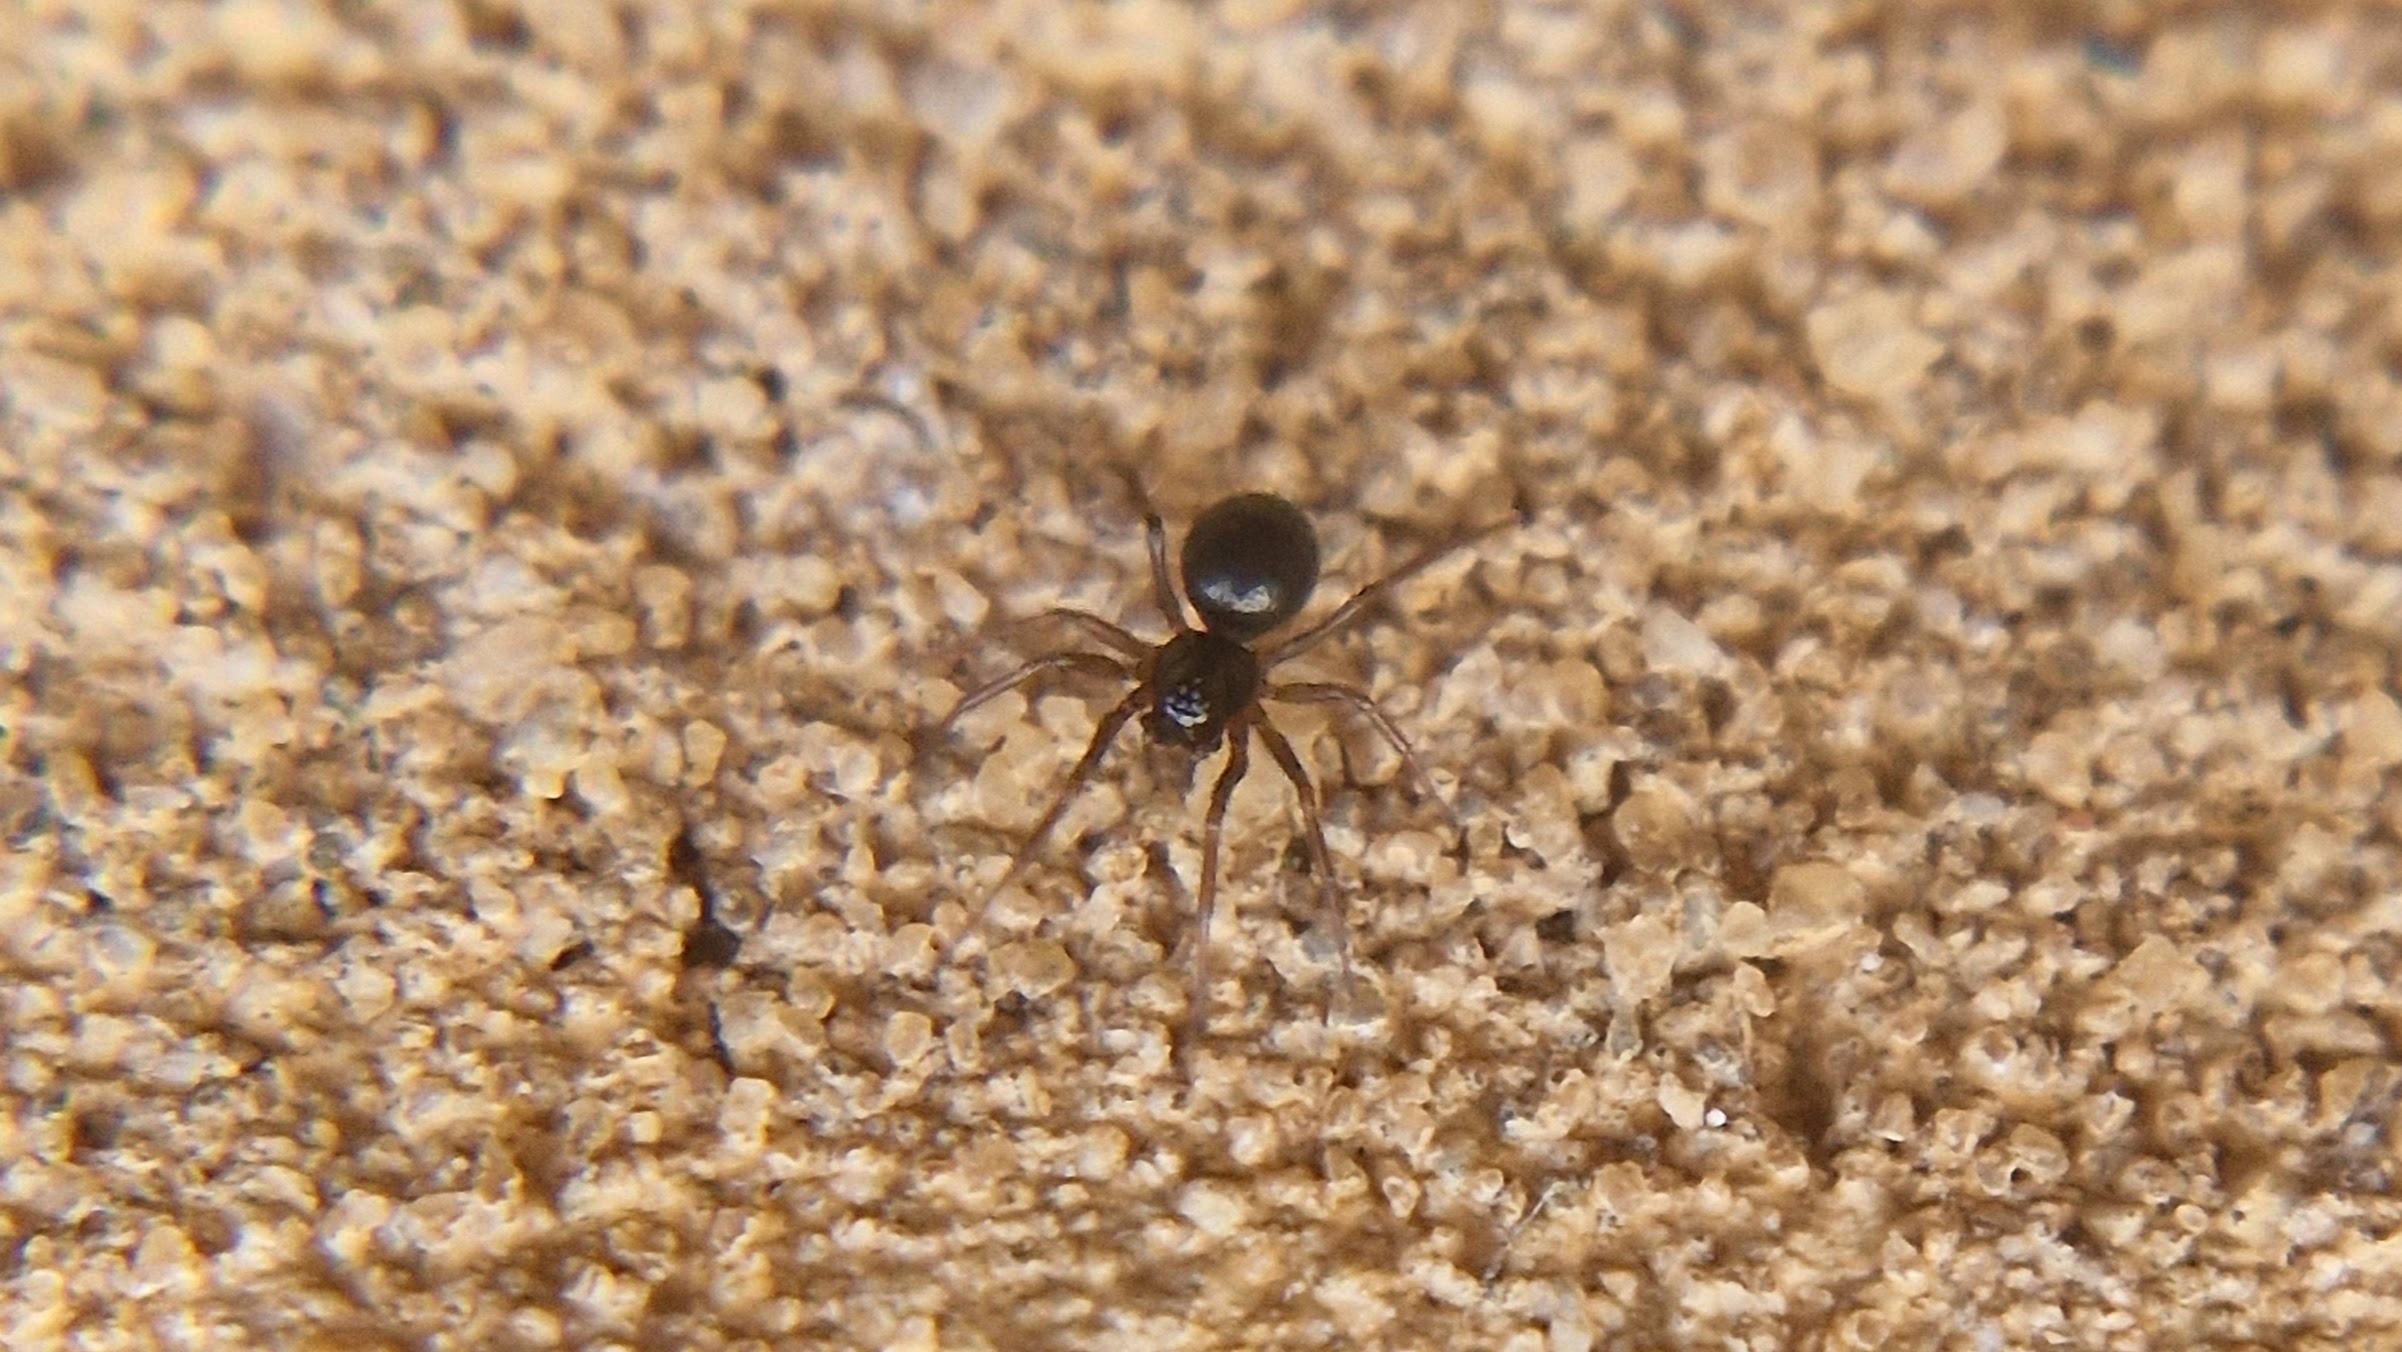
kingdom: Animalia
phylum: Arthropoda
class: Arachnida
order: Araneae
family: Linyphiidae
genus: Erigone
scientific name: Erigone
